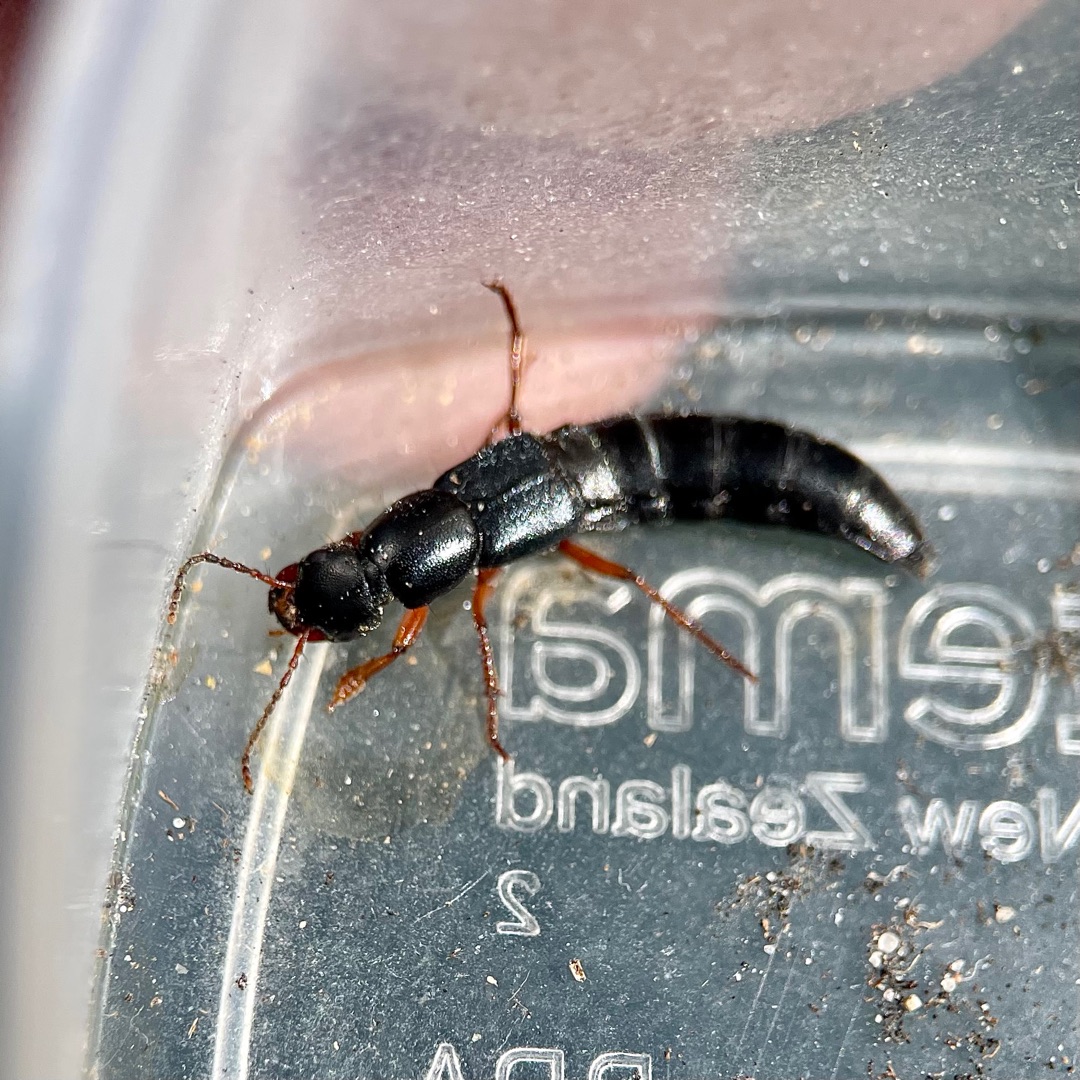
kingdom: Animalia
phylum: Arthropoda
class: Insecta
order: Coleoptera
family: Staphylinidae
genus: Tasgius
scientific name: Tasgius pedator
